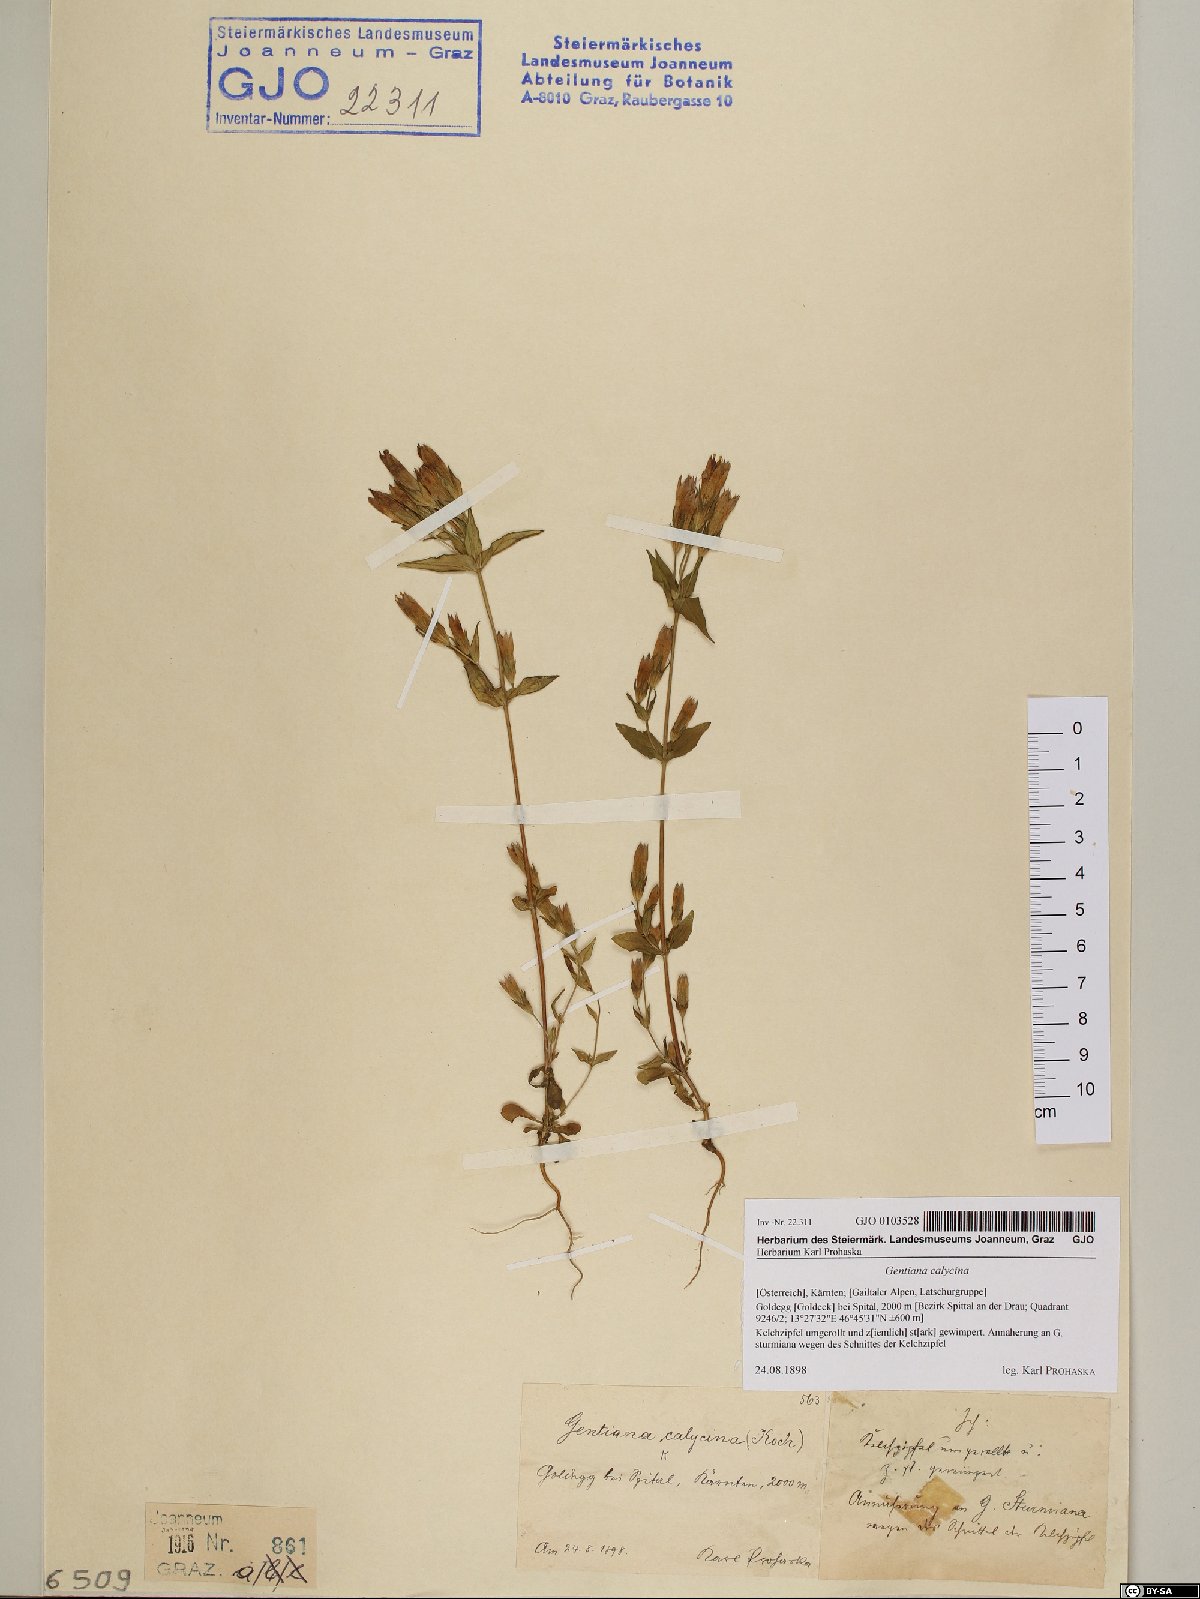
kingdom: Plantae
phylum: Tracheophyta
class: Magnoliopsida
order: Gentianales
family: Gentianaceae
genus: Gentianella
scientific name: Gentianella germanica
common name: Chiltern-gentian
